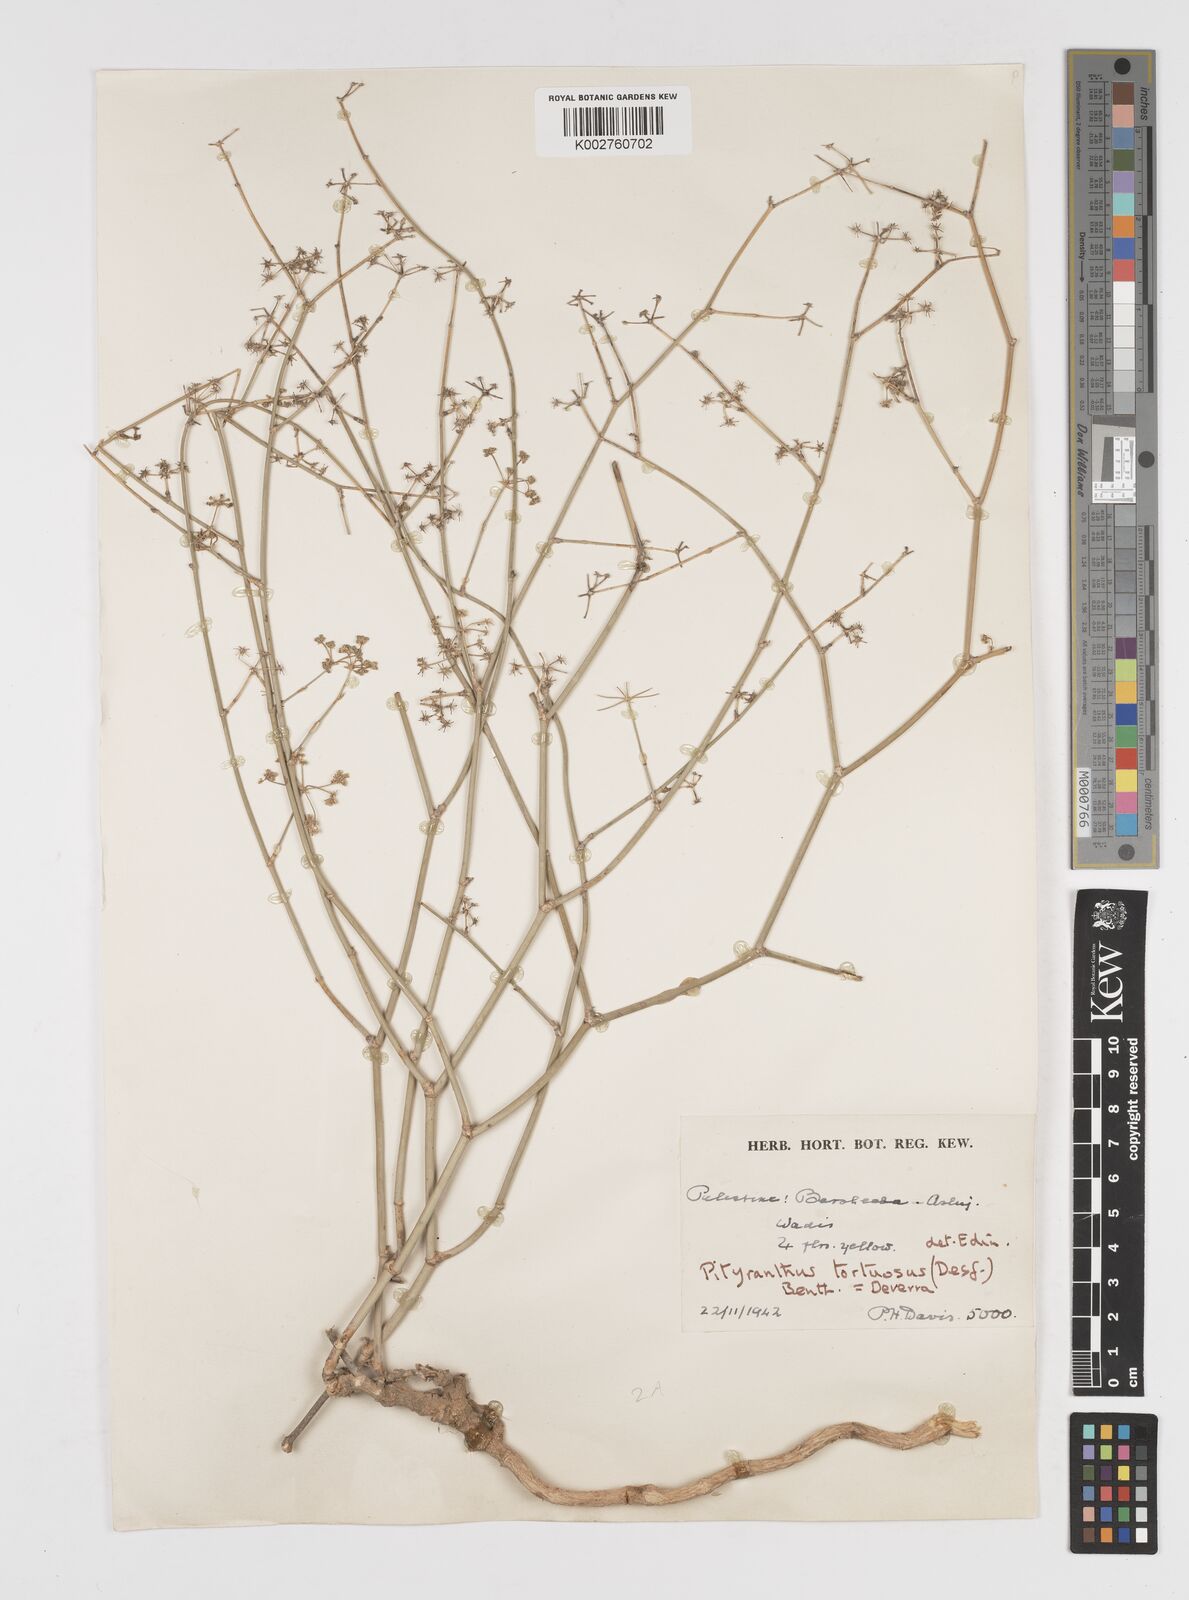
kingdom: Plantae
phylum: Tracheophyta
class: Magnoliopsida
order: Apiales
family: Apiaceae
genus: Deverra
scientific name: Deverra tortuosa
